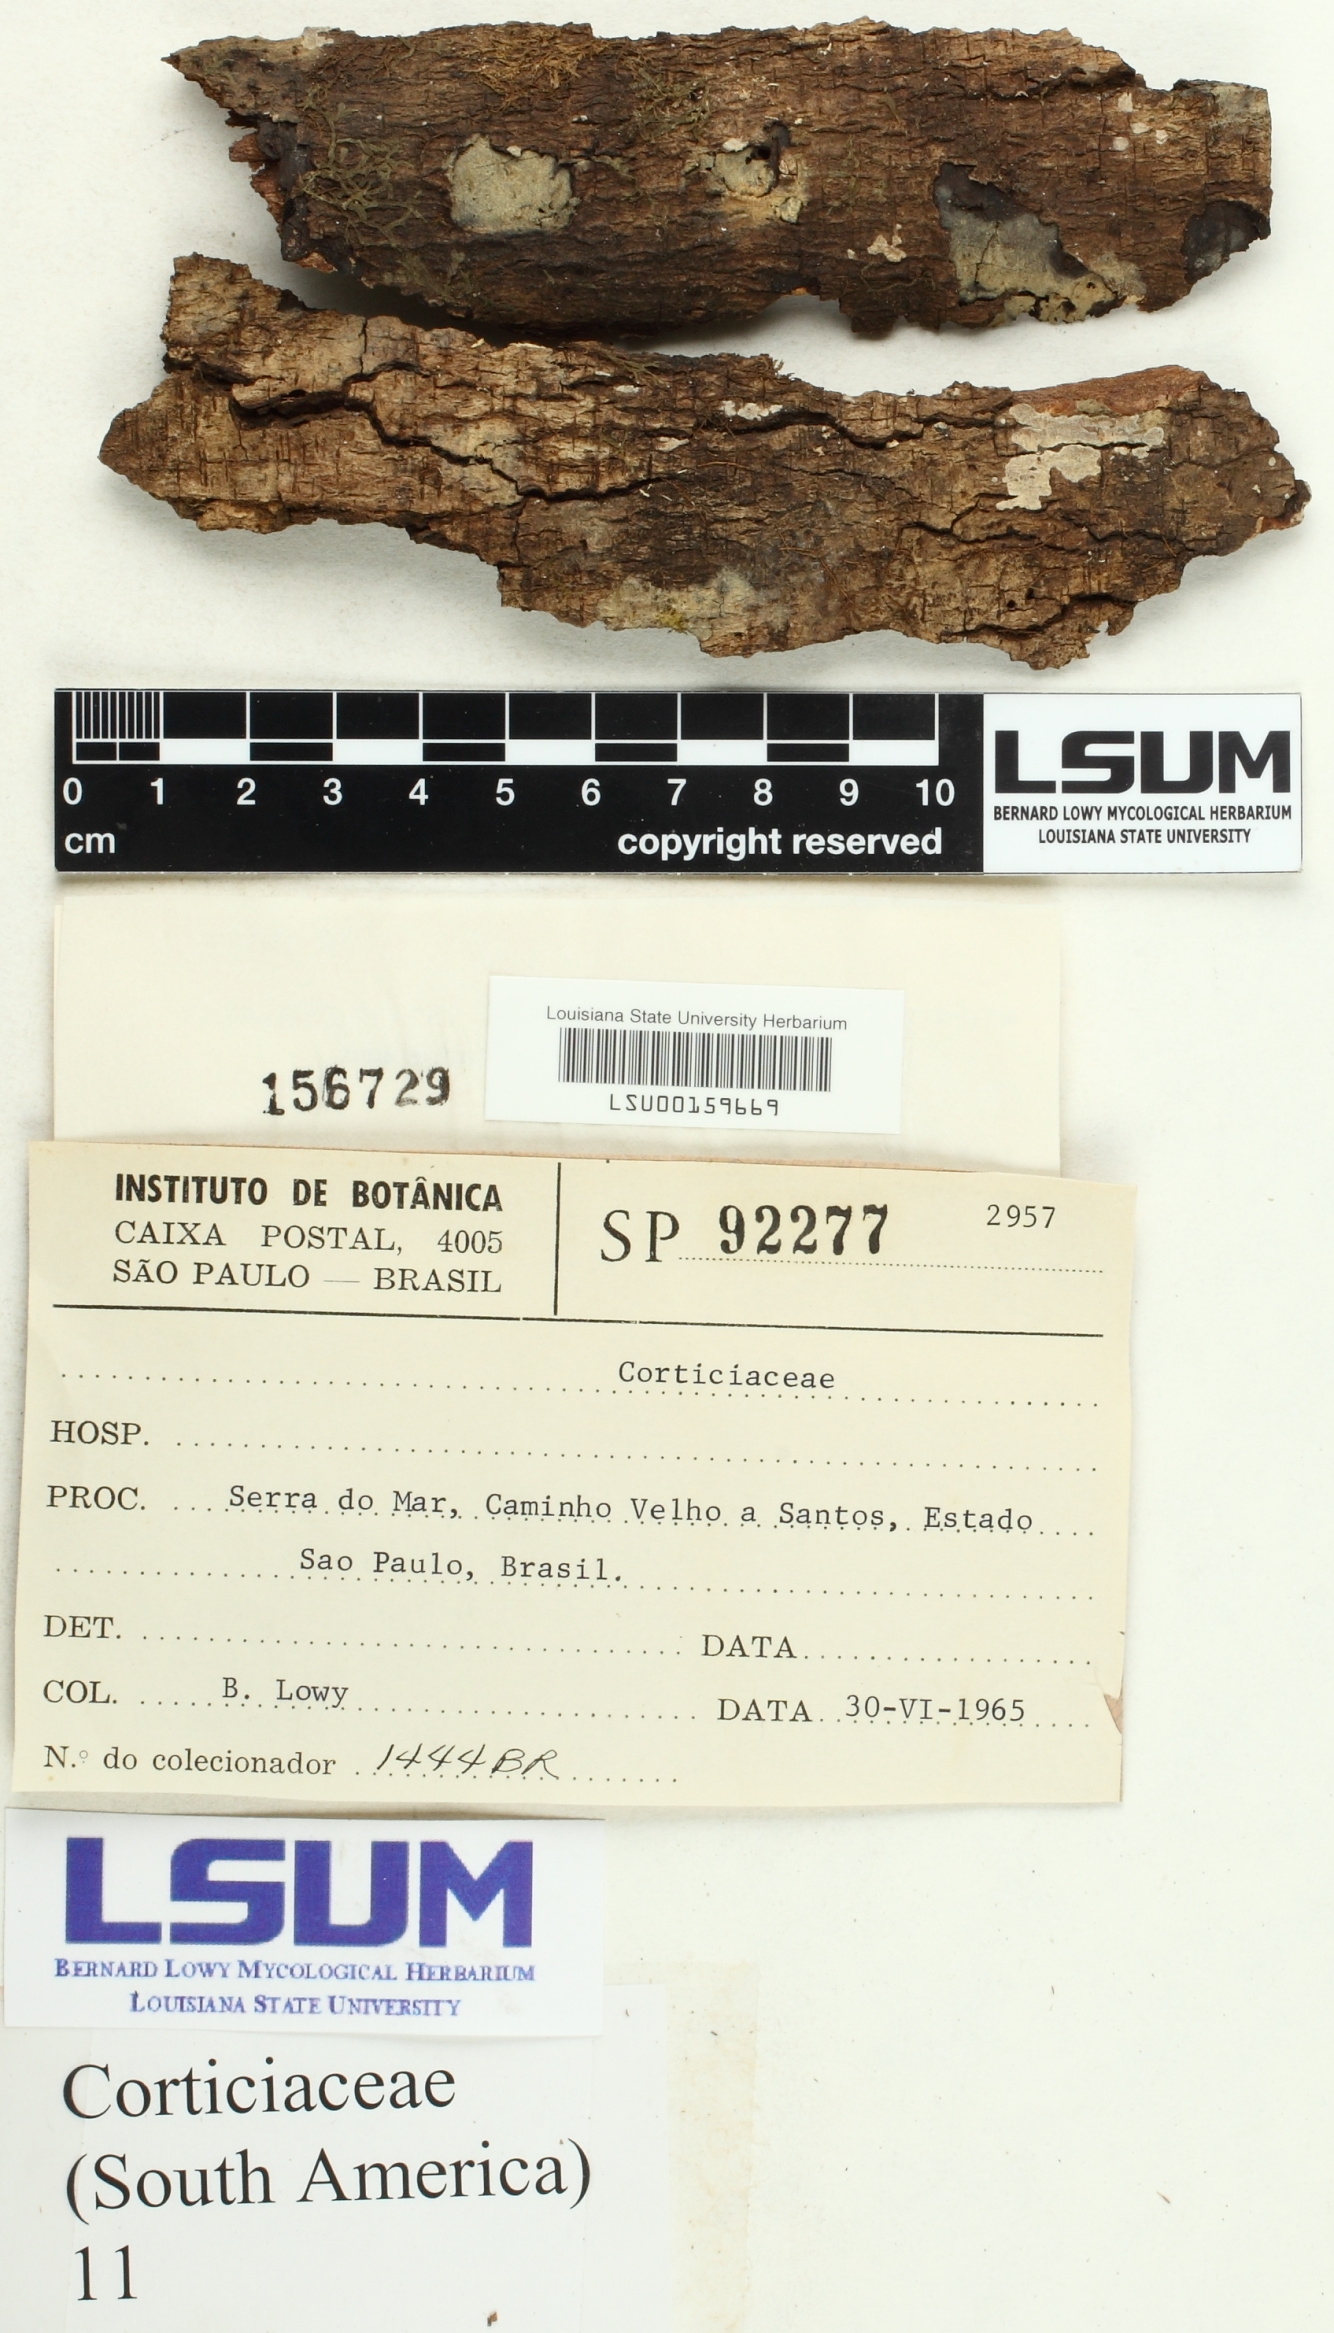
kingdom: Fungi
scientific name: Fungi
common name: Fungi
